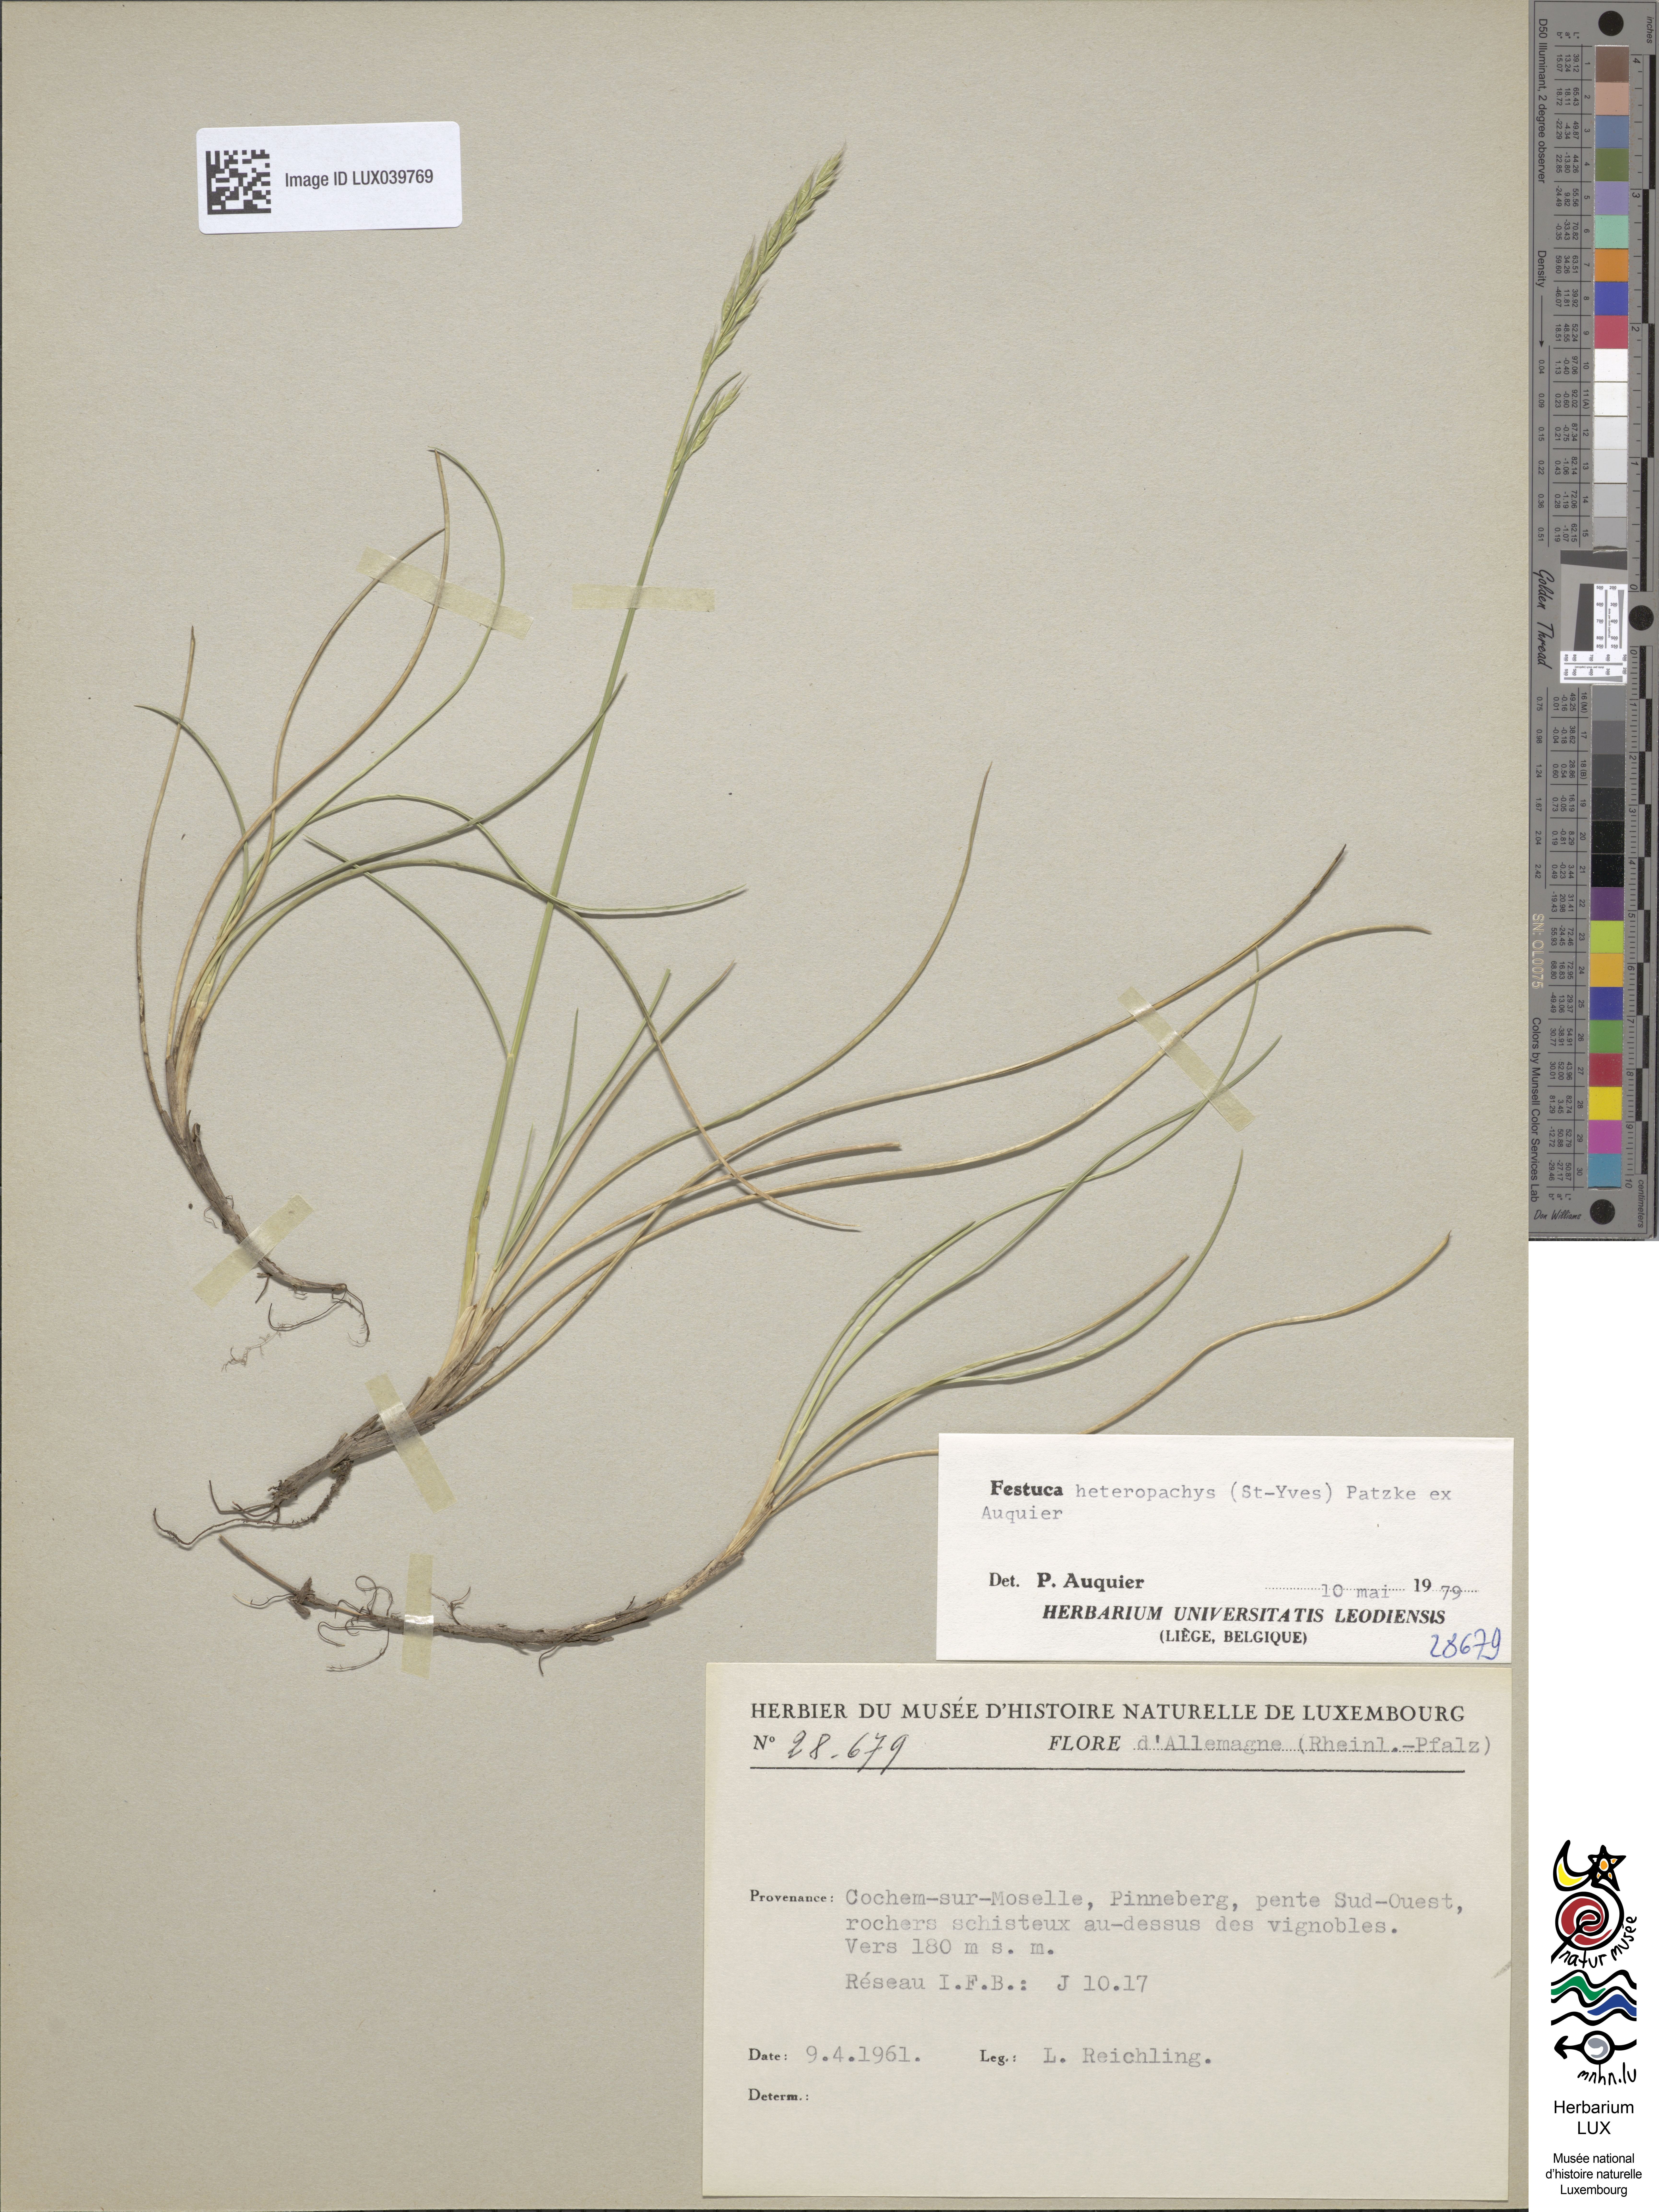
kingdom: Plantae
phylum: Tracheophyta
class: Liliopsida
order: Poales
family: Poaceae
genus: Festuca
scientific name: Festuca heteropachys
